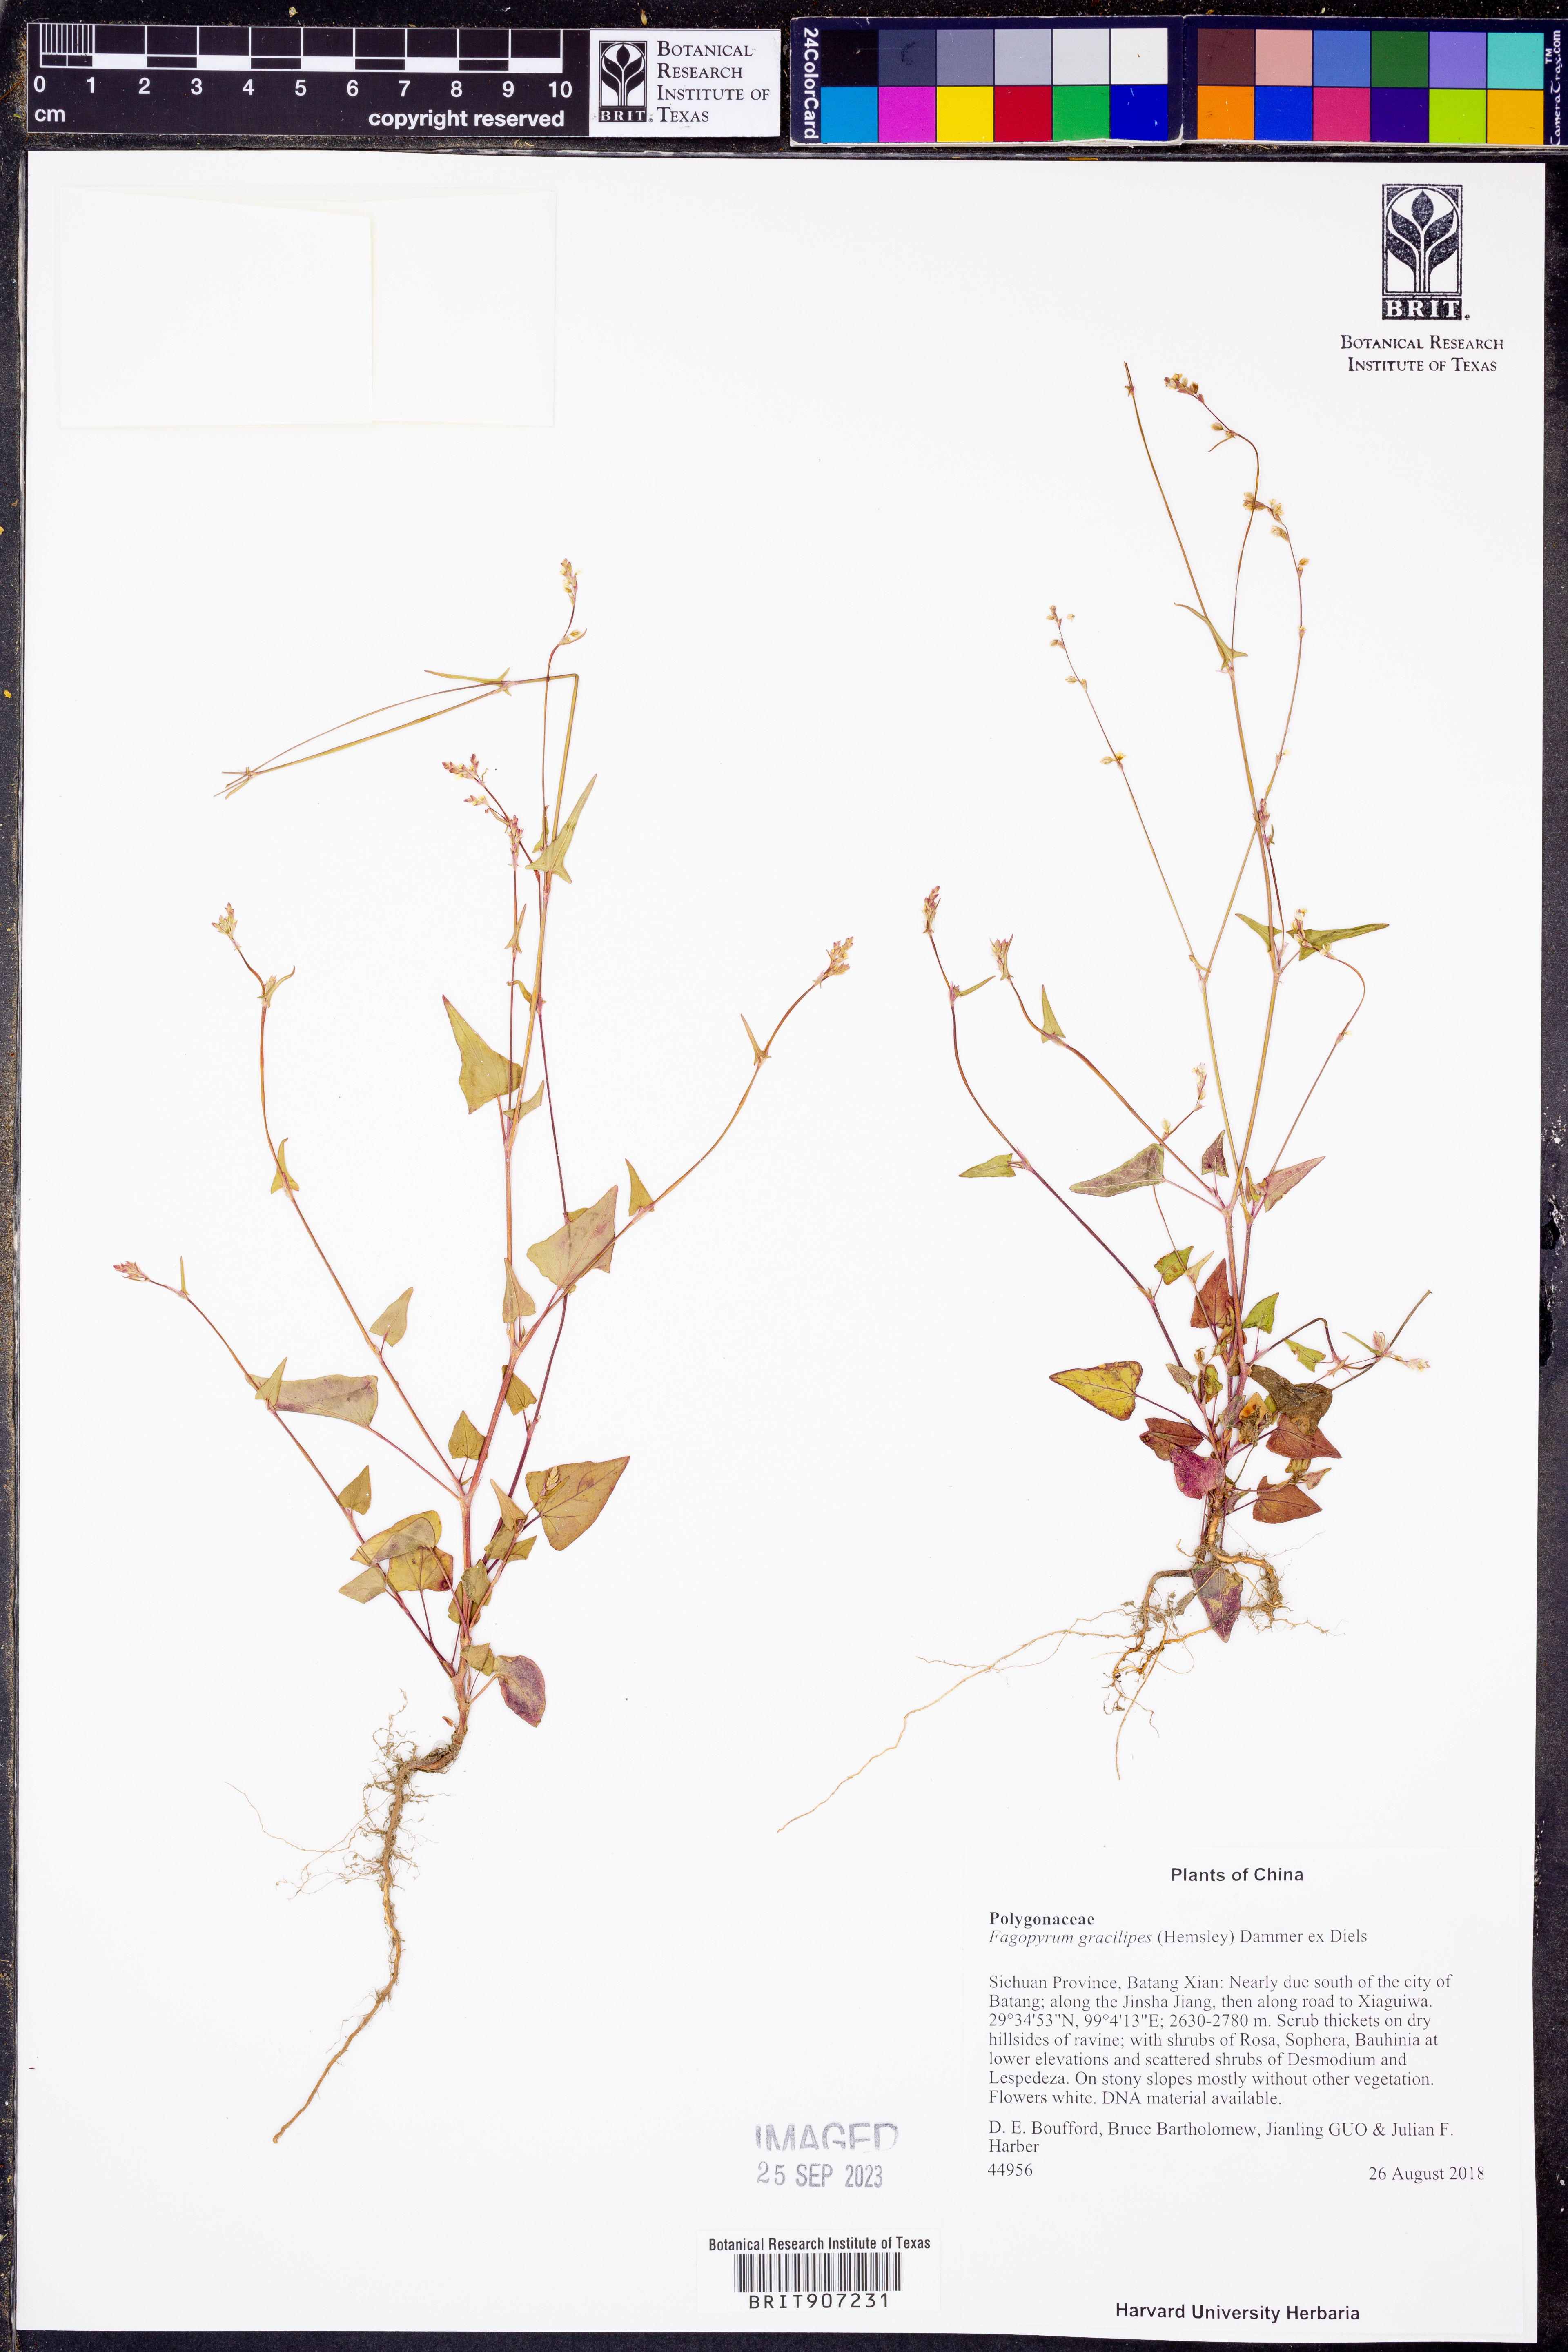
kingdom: Plantae
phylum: Tracheophyta
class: Magnoliopsida
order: Caryophyllales
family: Polygonaceae
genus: Fagopyrum
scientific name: Fagopyrum gracilipes
